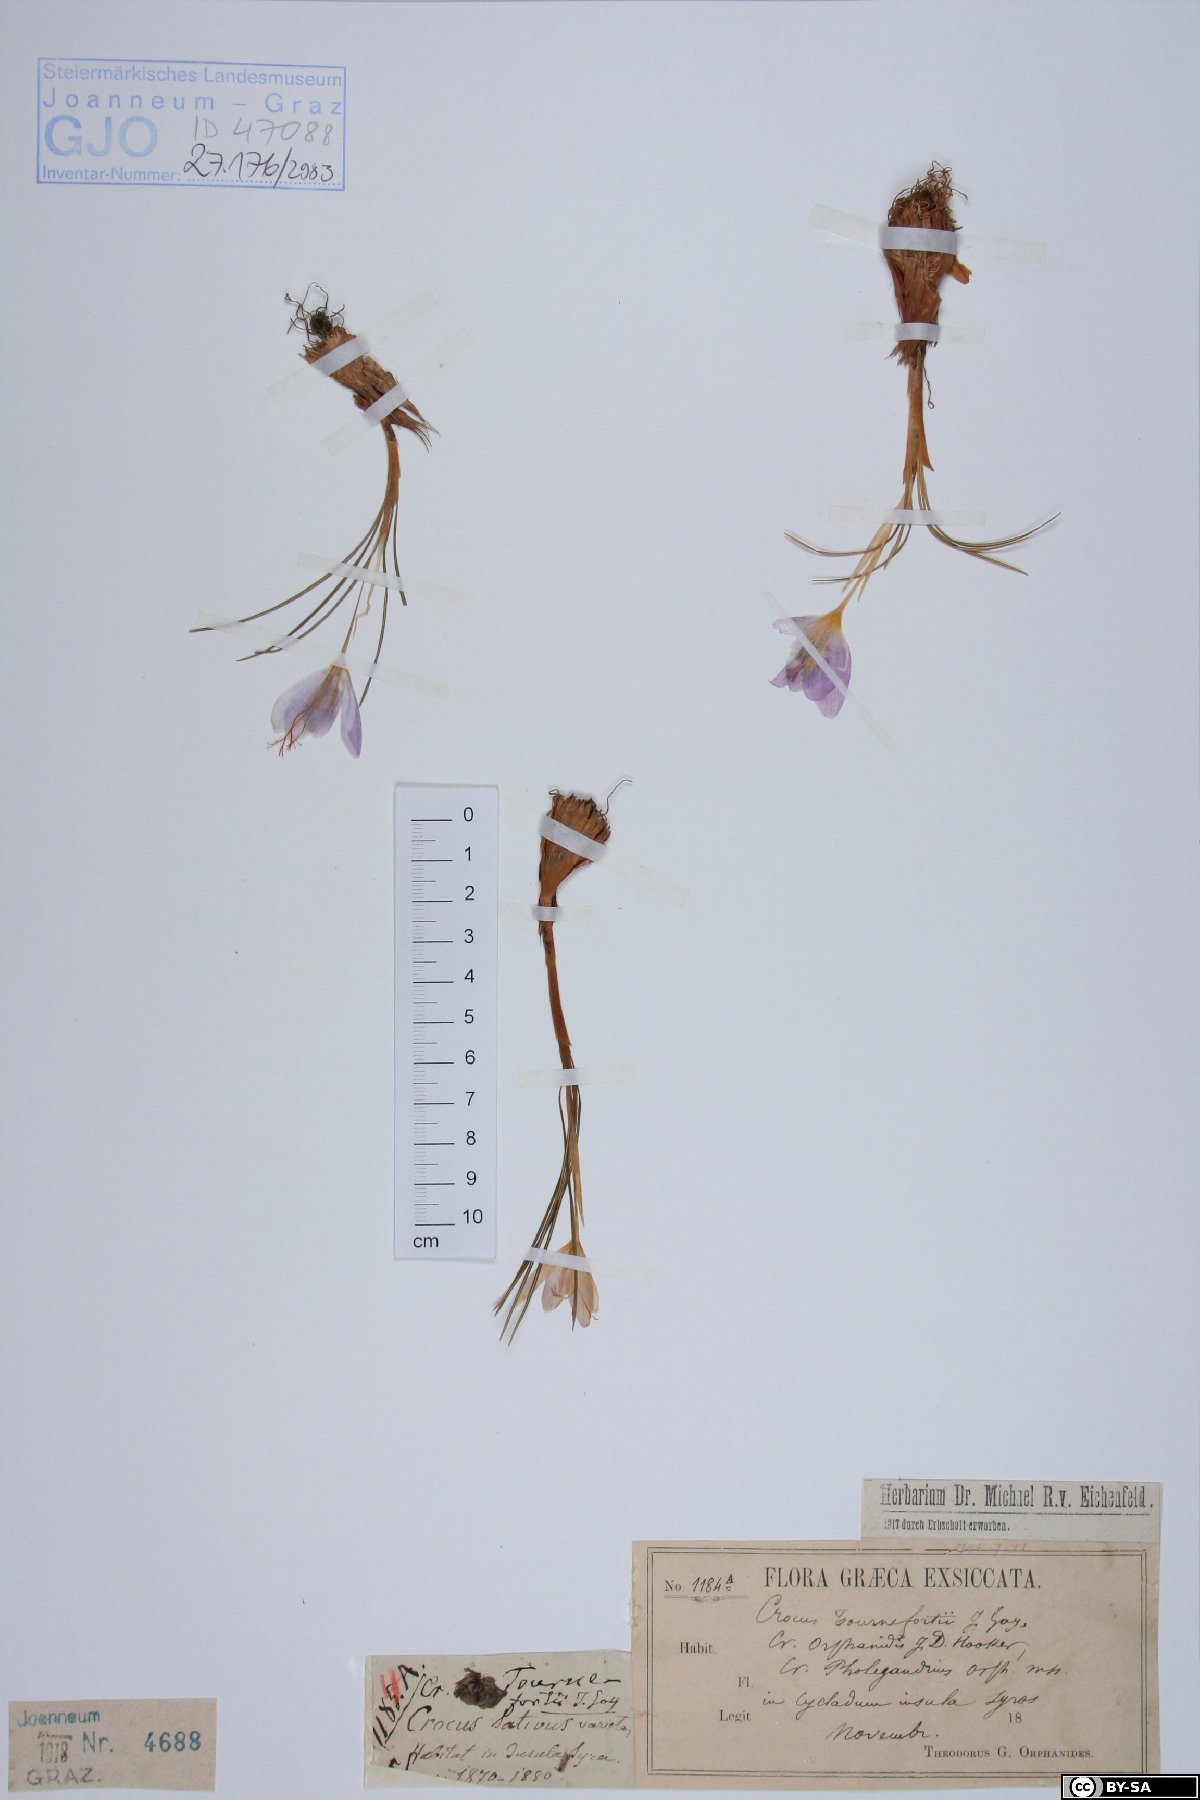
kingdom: Plantae
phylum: Tracheophyta
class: Liliopsida
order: Asparagales
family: Iridaceae
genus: Crocus
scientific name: Crocus tournefortii
